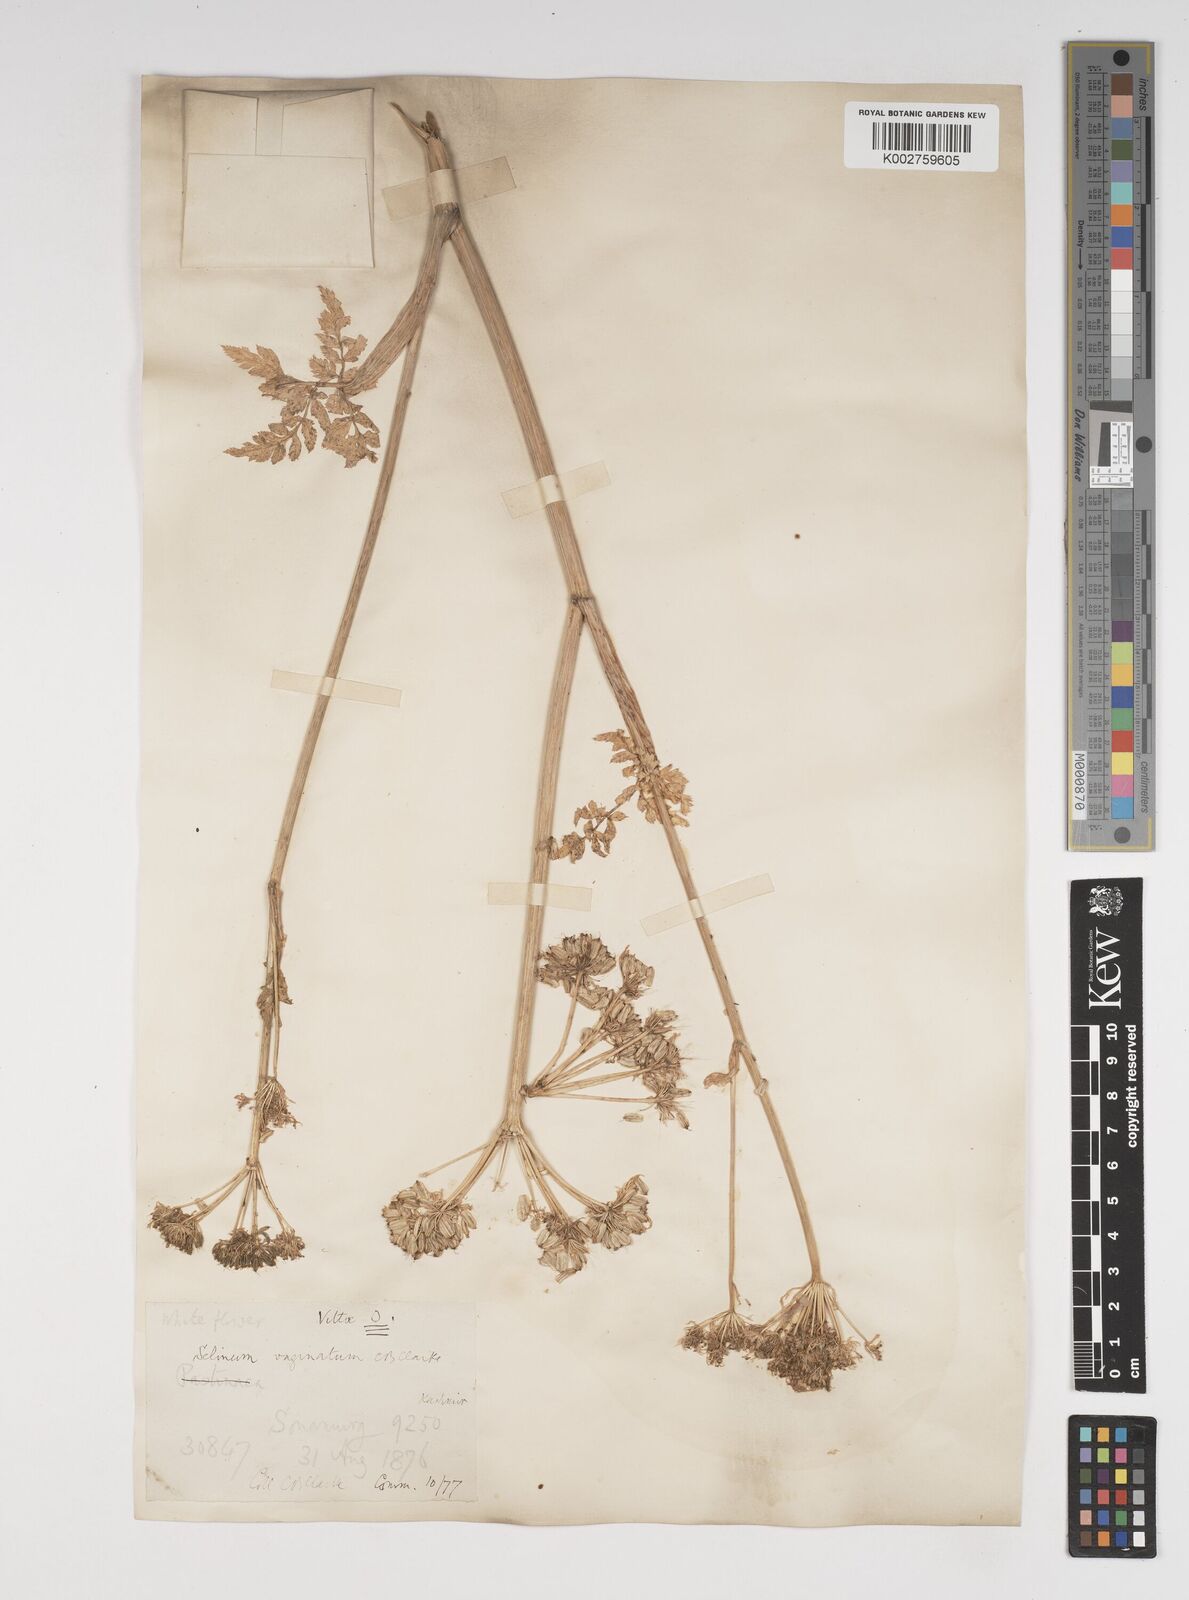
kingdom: Plantae
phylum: Tracheophyta
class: Magnoliopsida
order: Apiales
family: Apiaceae
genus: Selinum
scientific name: Selinum vaginatum
